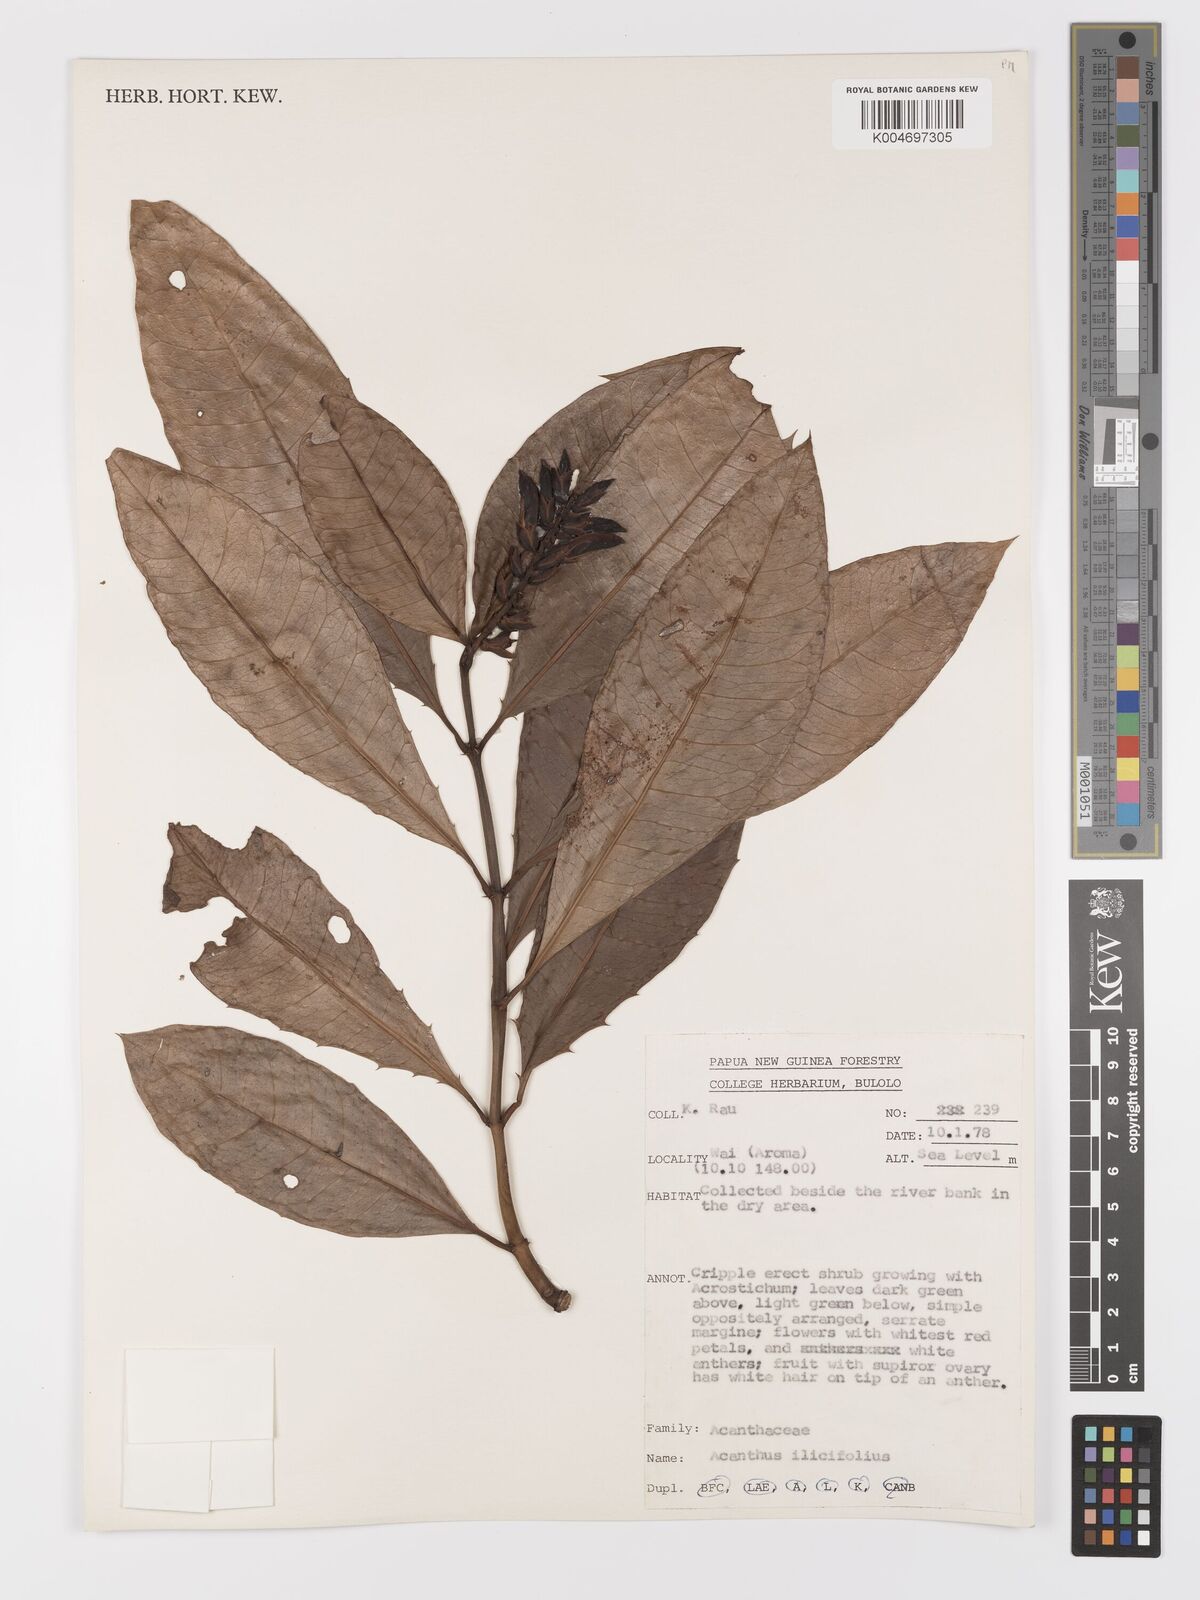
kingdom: Plantae
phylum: Tracheophyta
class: Magnoliopsida
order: Lamiales
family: Acanthaceae
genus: Acanthus
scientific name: Acanthus ilicifolius
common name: Holy mangrove
